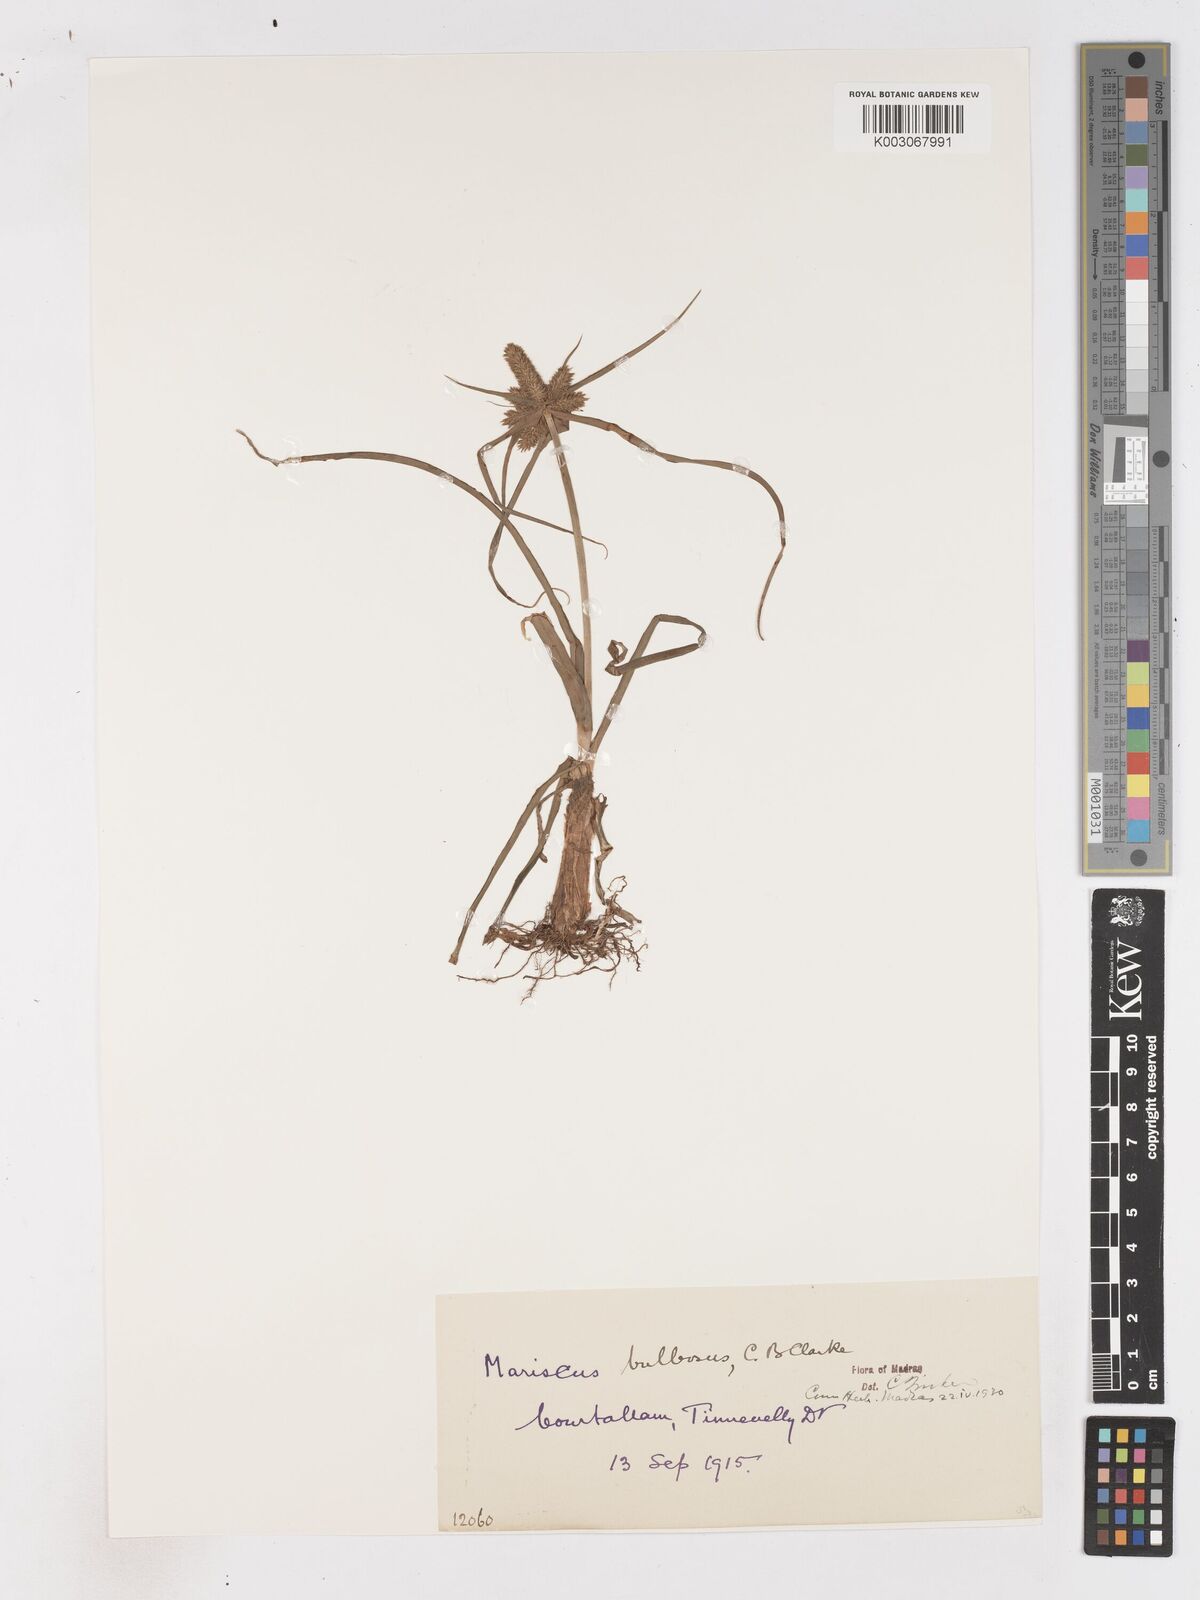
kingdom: Plantae
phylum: Tracheophyta
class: Liliopsida
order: Poales
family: Cyperaceae
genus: Cyperus
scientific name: Cyperus clarkei
